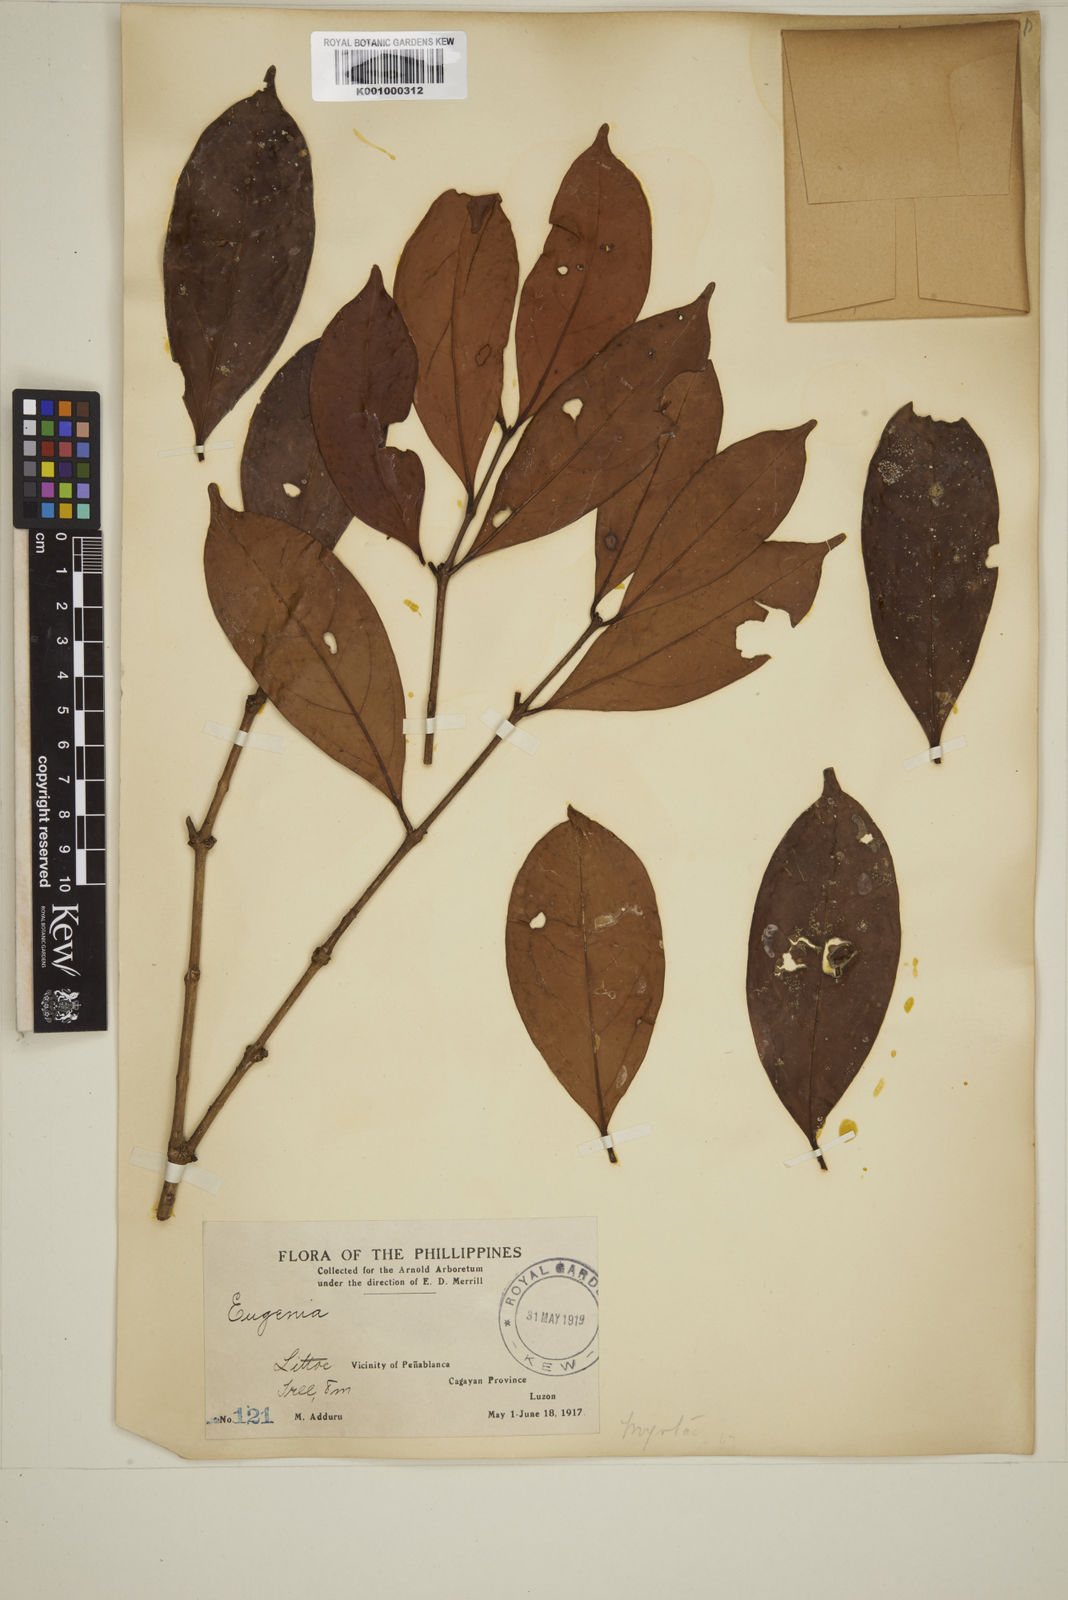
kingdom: Plantae
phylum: Tracheophyta
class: Magnoliopsida
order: Myrtales
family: Myrtaceae
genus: Eugenia
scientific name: Eugenia tulanan
